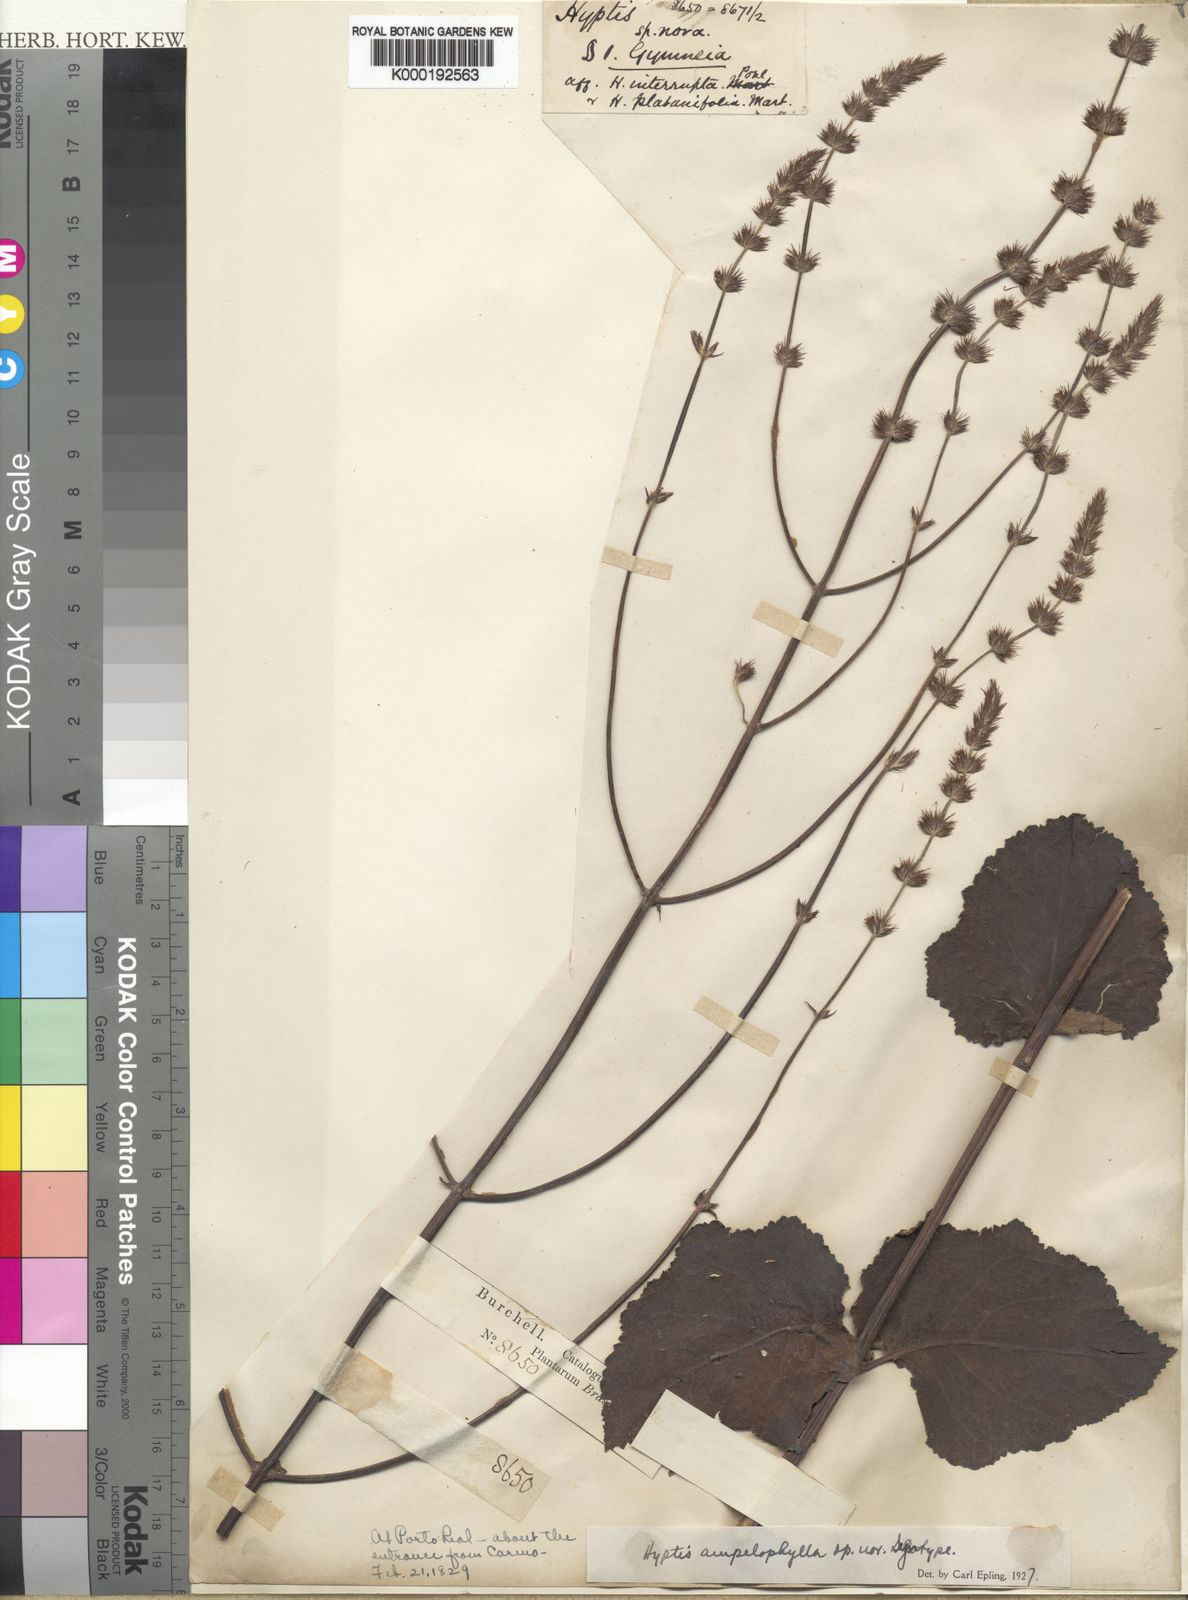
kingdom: Plantae
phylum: Tracheophyta
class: Magnoliopsida
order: Lamiales
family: Lamiaceae
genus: Gymneia
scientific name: Gymneia ampelophylla
